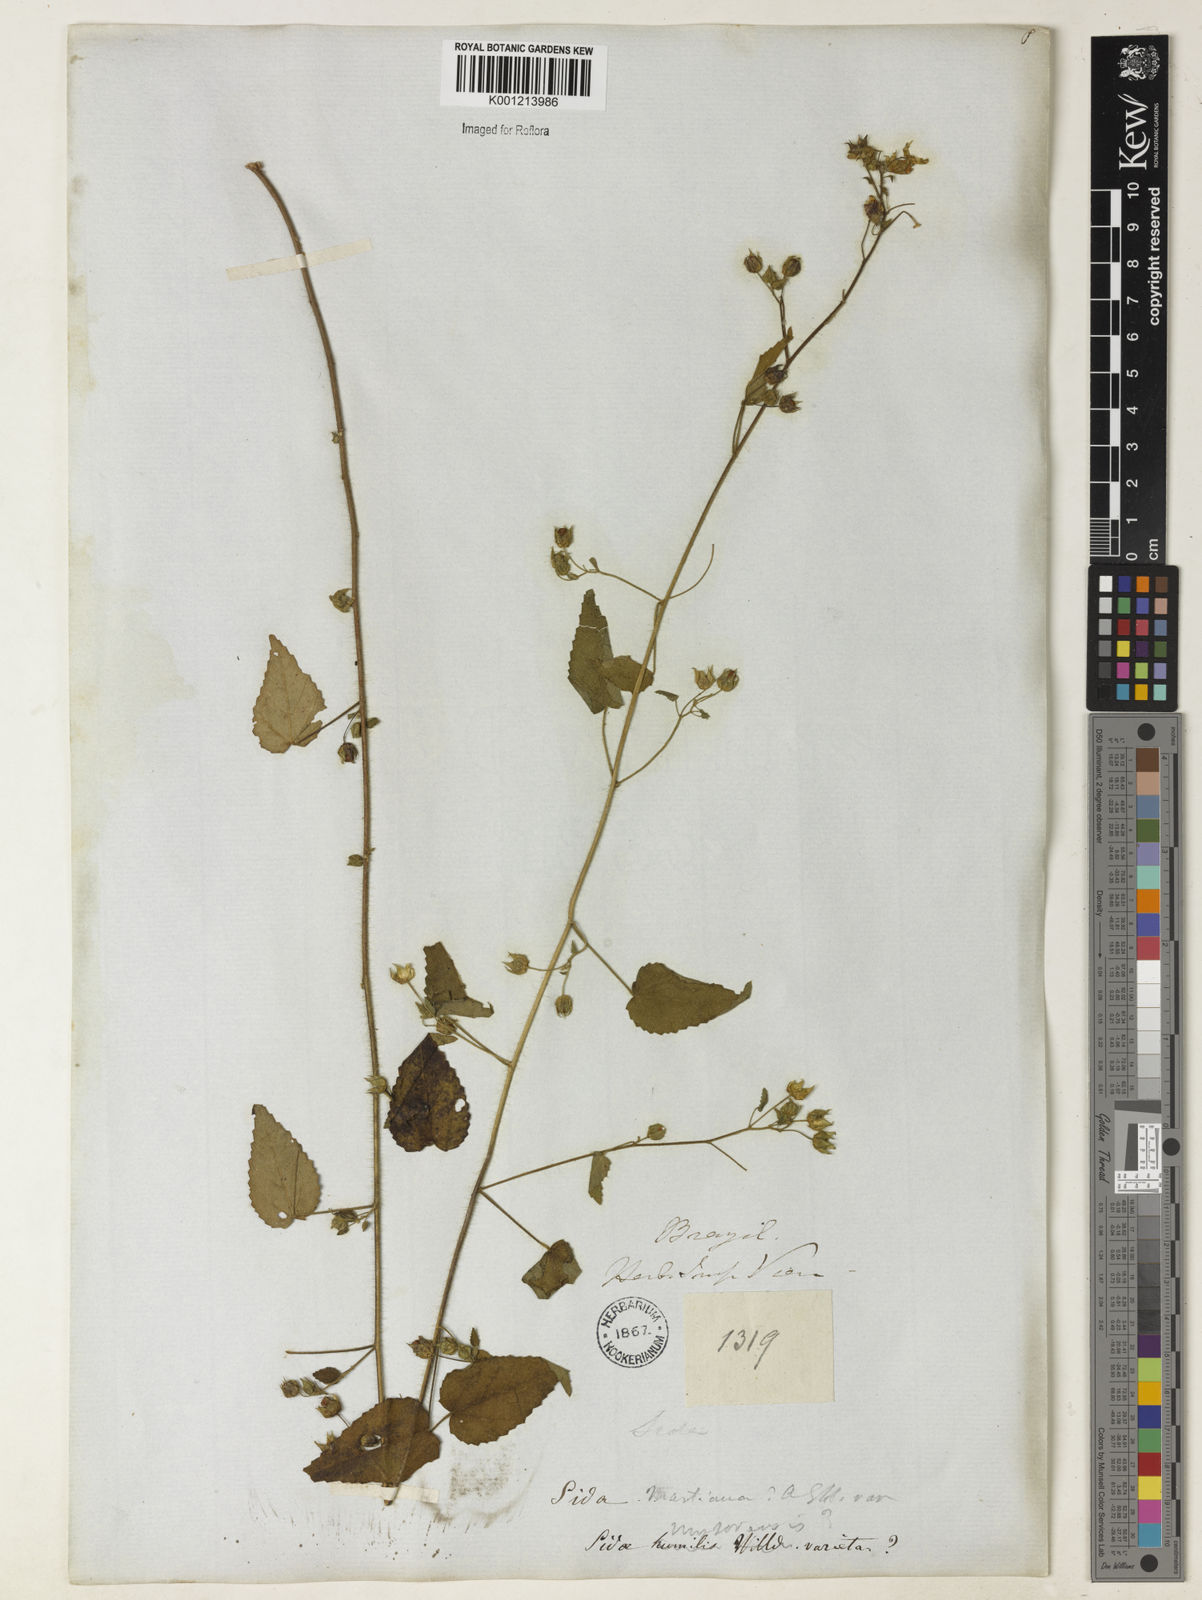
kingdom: Plantae
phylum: Tracheophyta
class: Magnoliopsida
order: Malvales
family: Malvaceae
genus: Sida
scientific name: Sida aurantiaca
